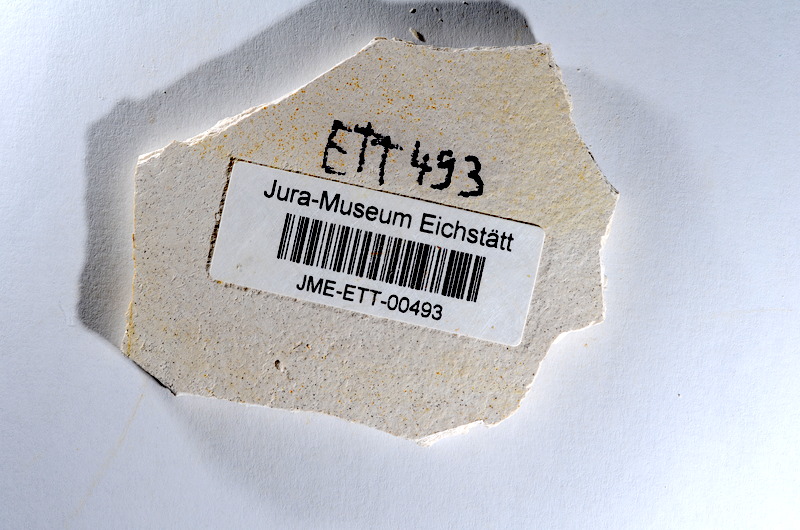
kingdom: Animalia
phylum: Chordata
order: Salmoniformes
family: Orthogonikleithridae
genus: Orthogonikleithrus
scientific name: Orthogonikleithrus hoelli
